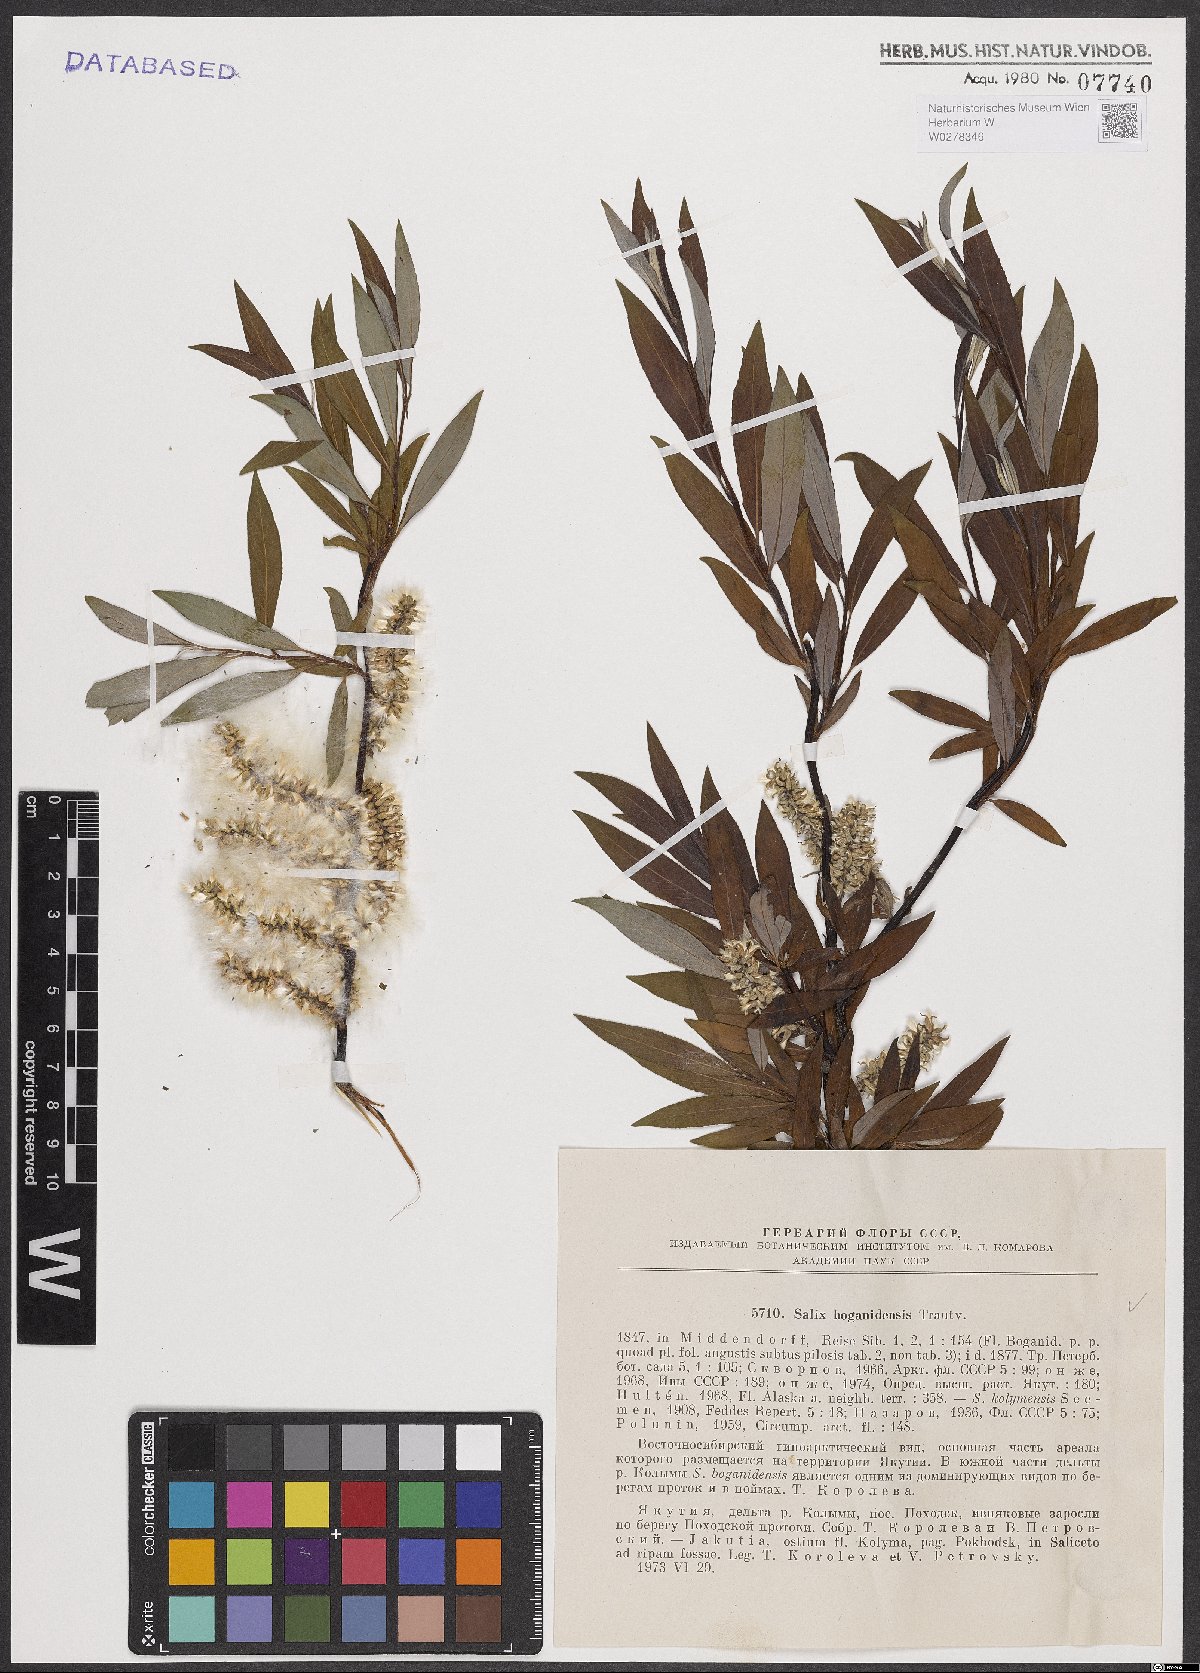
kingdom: Plantae
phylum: Tracheophyta
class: Magnoliopsida
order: Malpighiales
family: Salicaceae
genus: Salix
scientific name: Salix boganidensis
